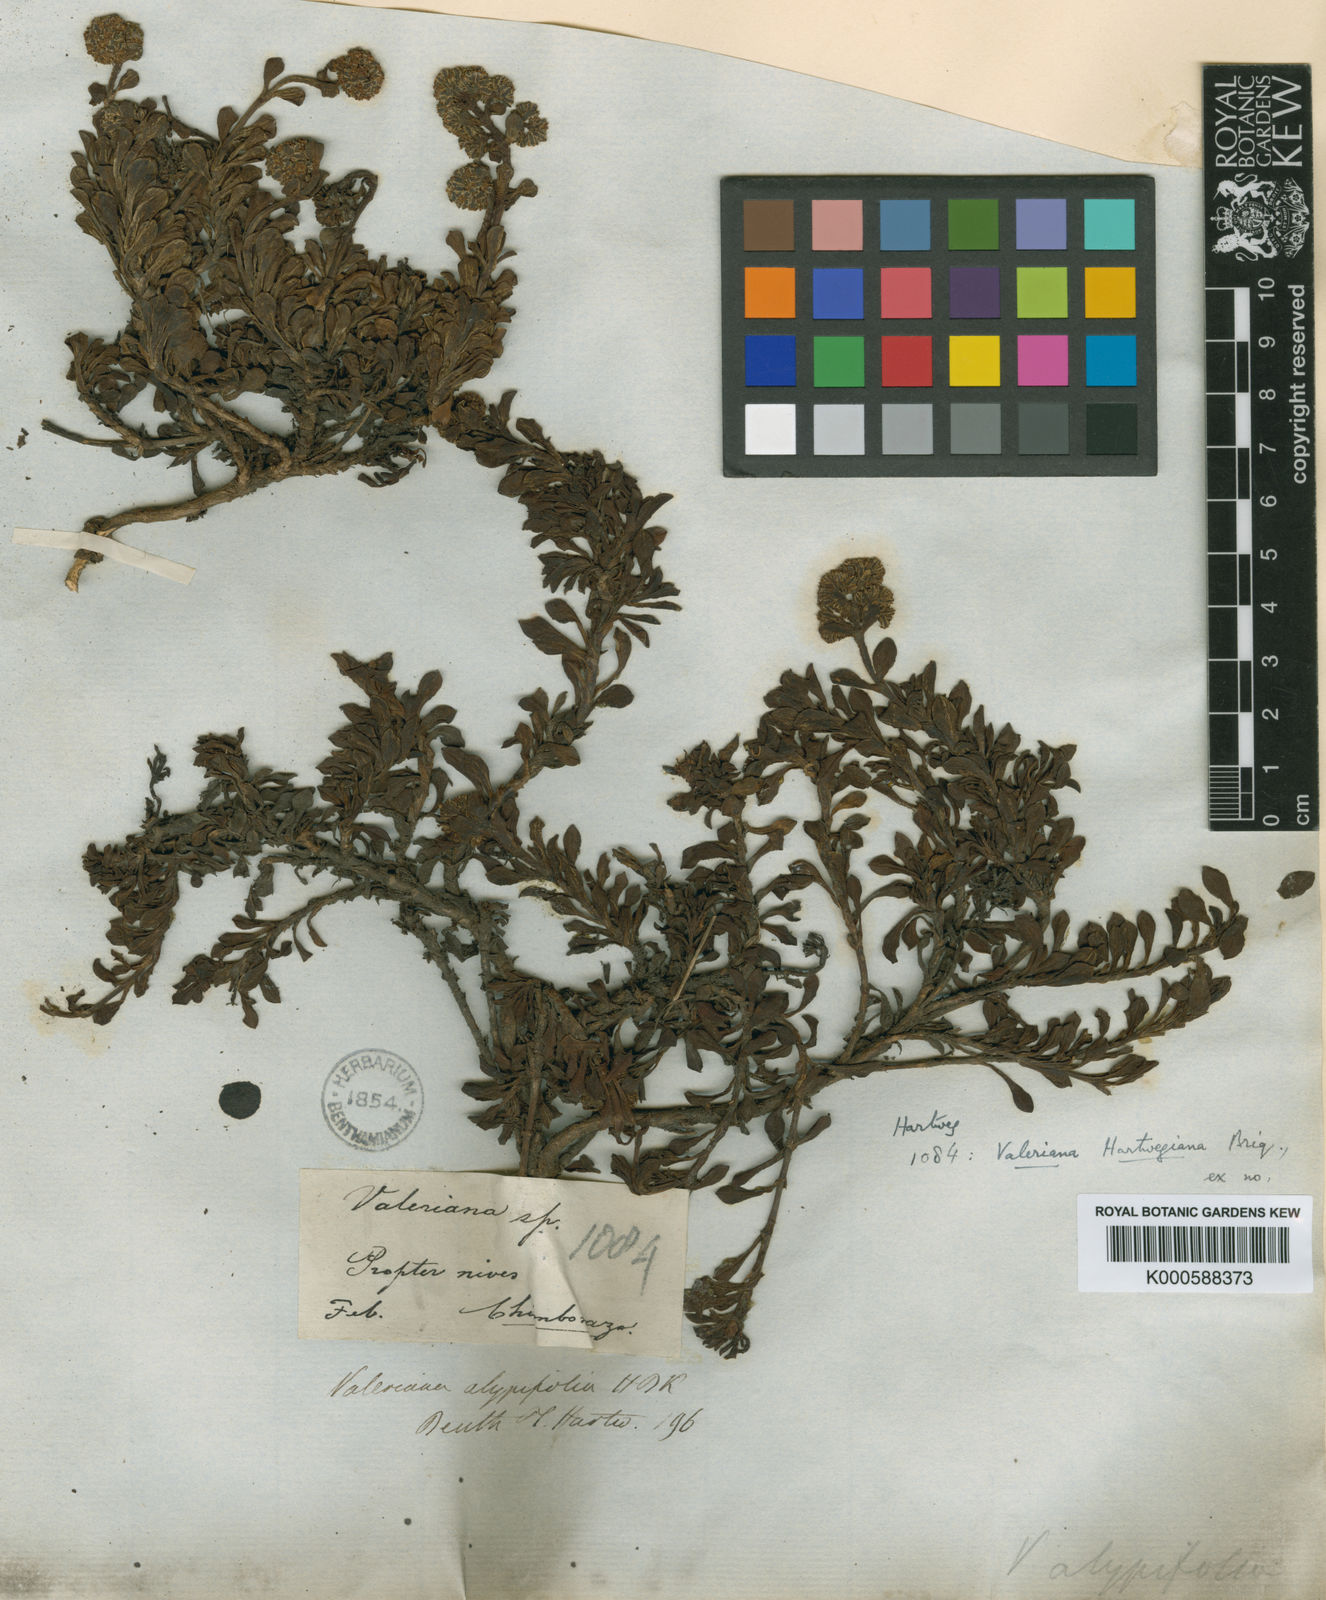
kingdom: Plantae
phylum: Tracheophyta
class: Magnoliopsida
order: Dipsacales
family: Caprifoliaceae
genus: Valeriana
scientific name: Valeriana alypifolia
